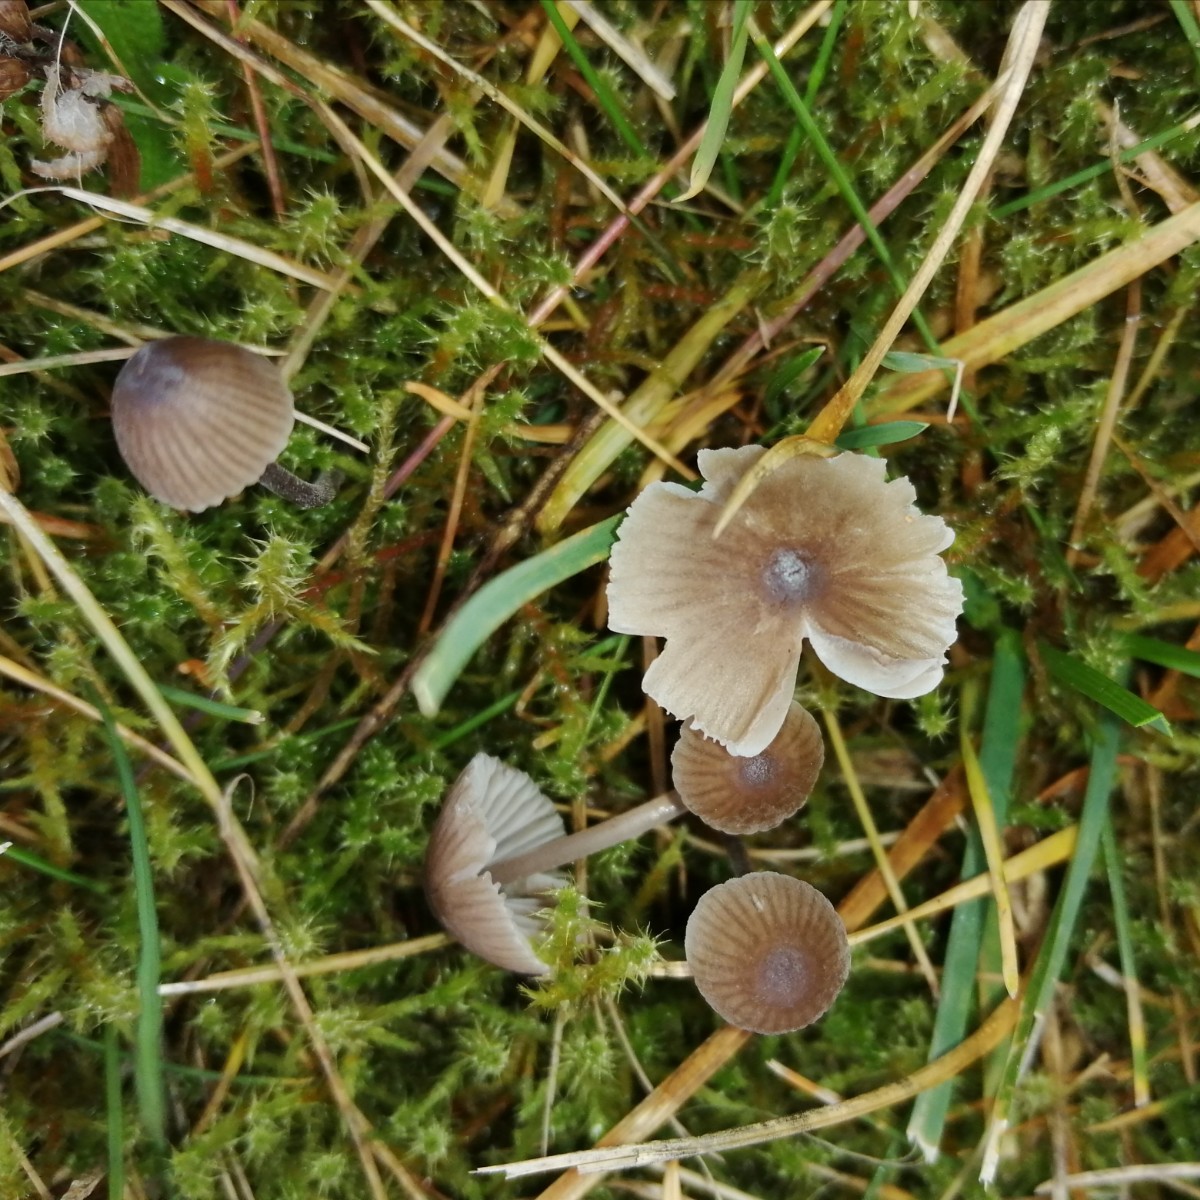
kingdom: Fungi
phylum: Basidiomycota
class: Agaricomycetes
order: Agaricales
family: Mycenaceae
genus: Mycena
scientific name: Mycena leptocephala
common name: klor-huesvamp
